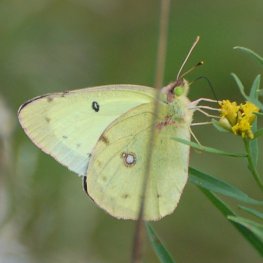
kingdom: Animalia
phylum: Arthropoda
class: Insecta
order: Lepidoptera
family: Pieridae
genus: Colias
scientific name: Colias philodice
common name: Clouded Sulphur
